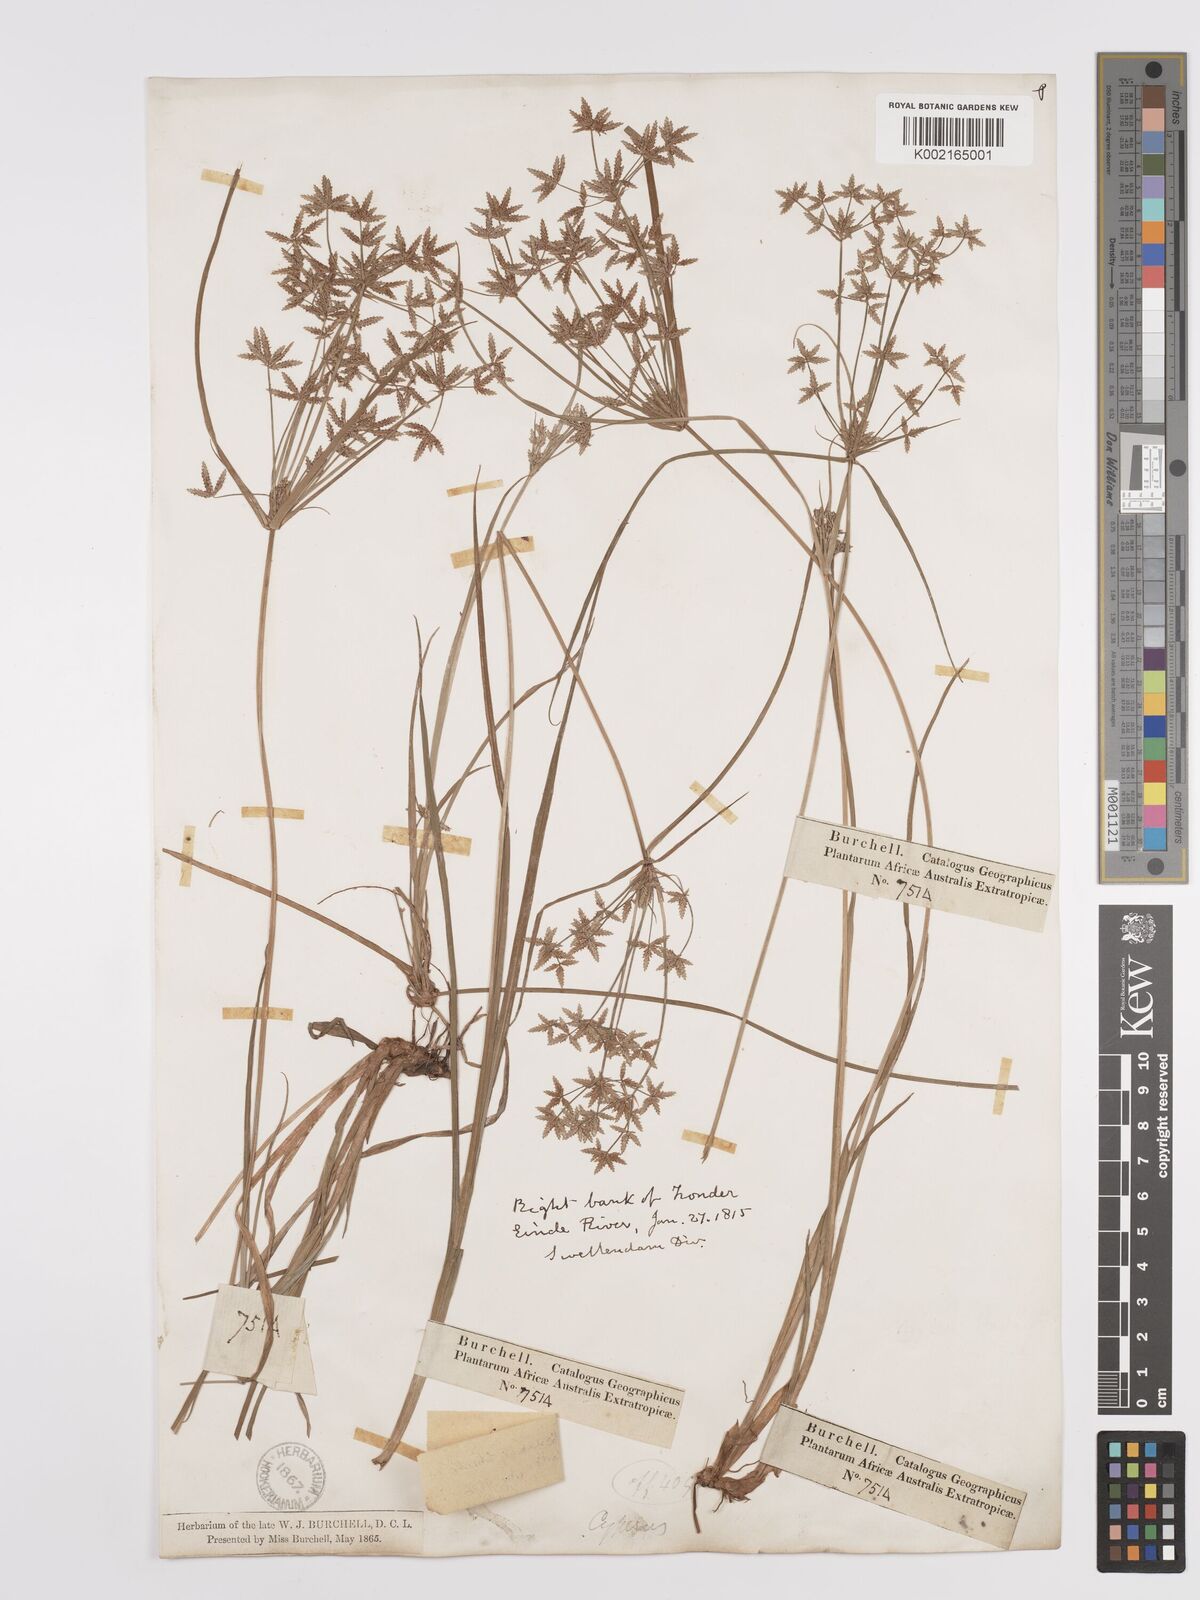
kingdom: Plantae
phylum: Tracheophyta
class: Liliopsida
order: Poales
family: Cyperaceae
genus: Cyperus
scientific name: Cyperus denudatus
